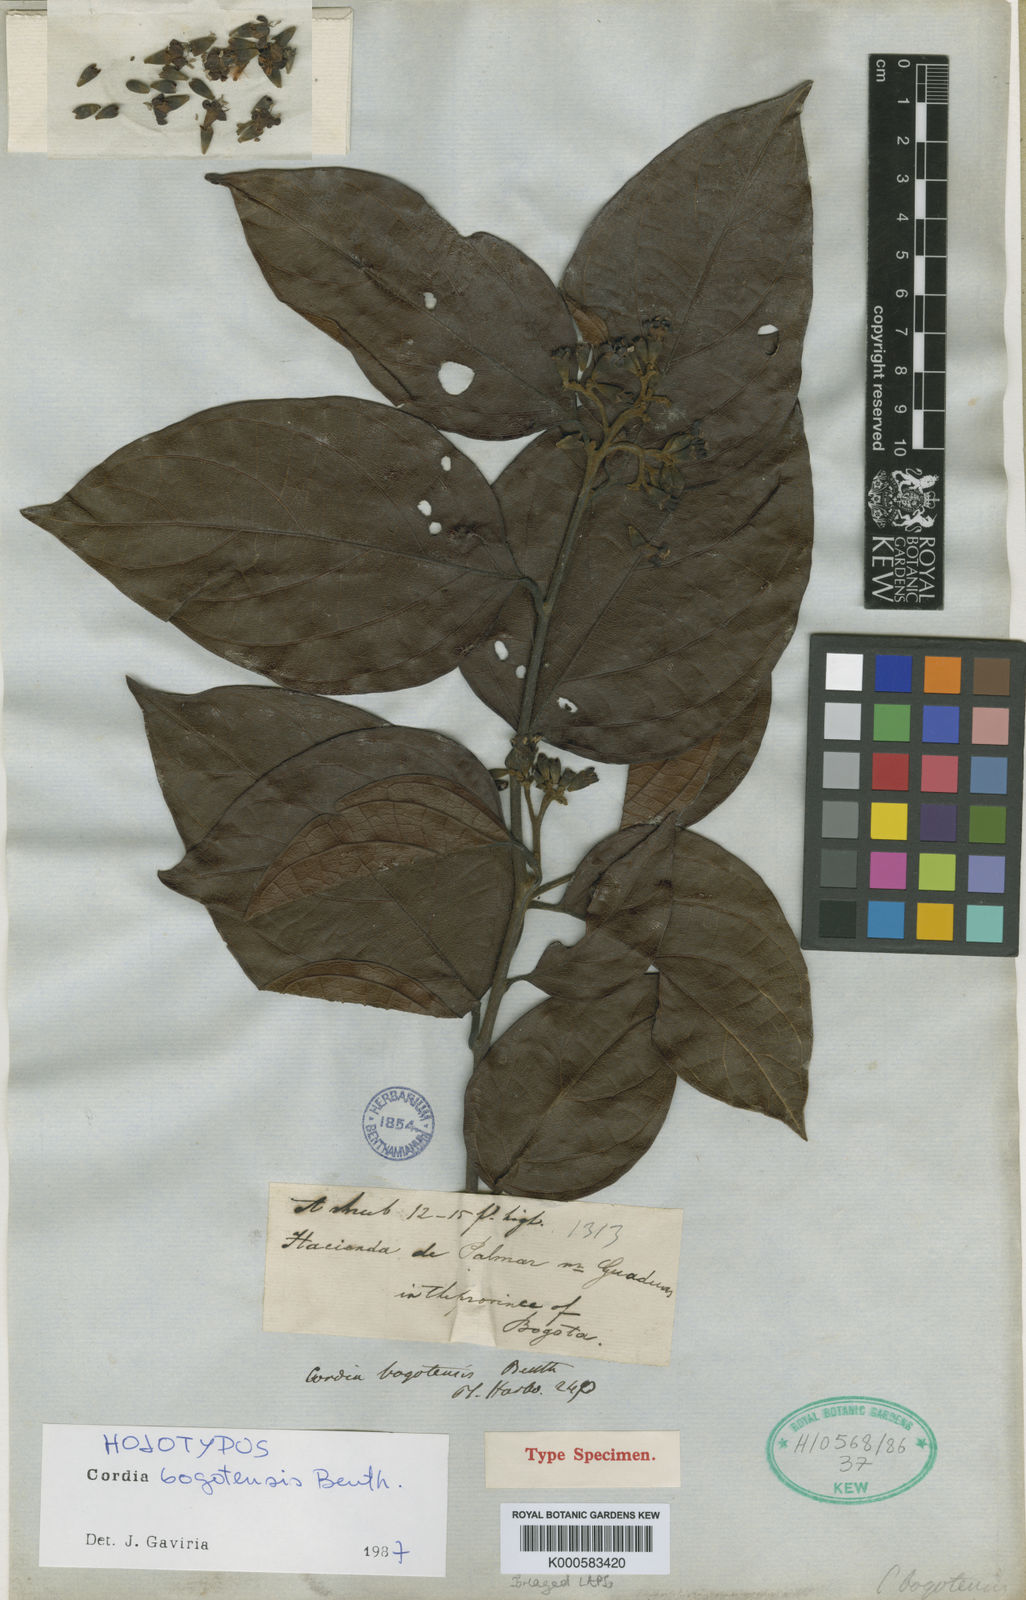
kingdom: Plantae
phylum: Tracheophyta
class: Magnoliopsida
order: Boraginales
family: Cordiaceae
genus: Cordia
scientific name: Cordia bogotensis
